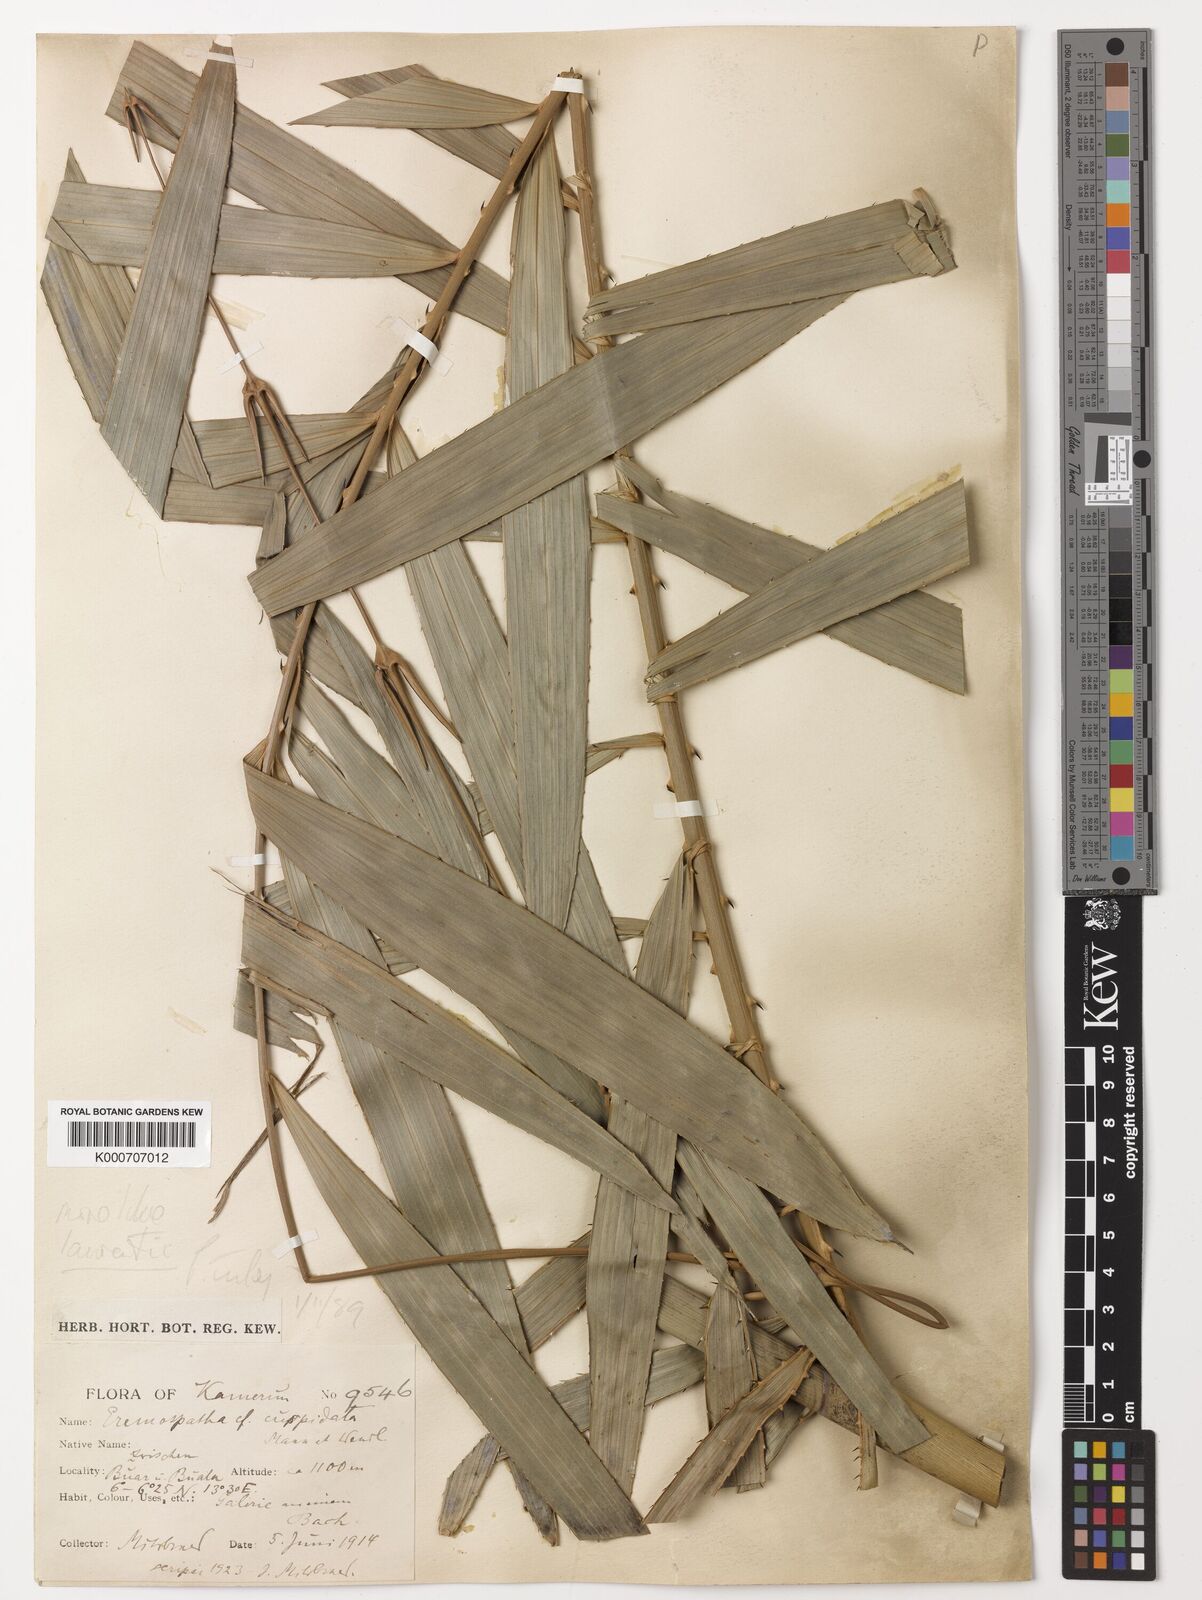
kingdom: Plantae
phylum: Tracheophyta
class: Liliopsida
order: Arecales
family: Arecaceae
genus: Eremospatha
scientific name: Eremospatha cuspidata
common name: Rattan
